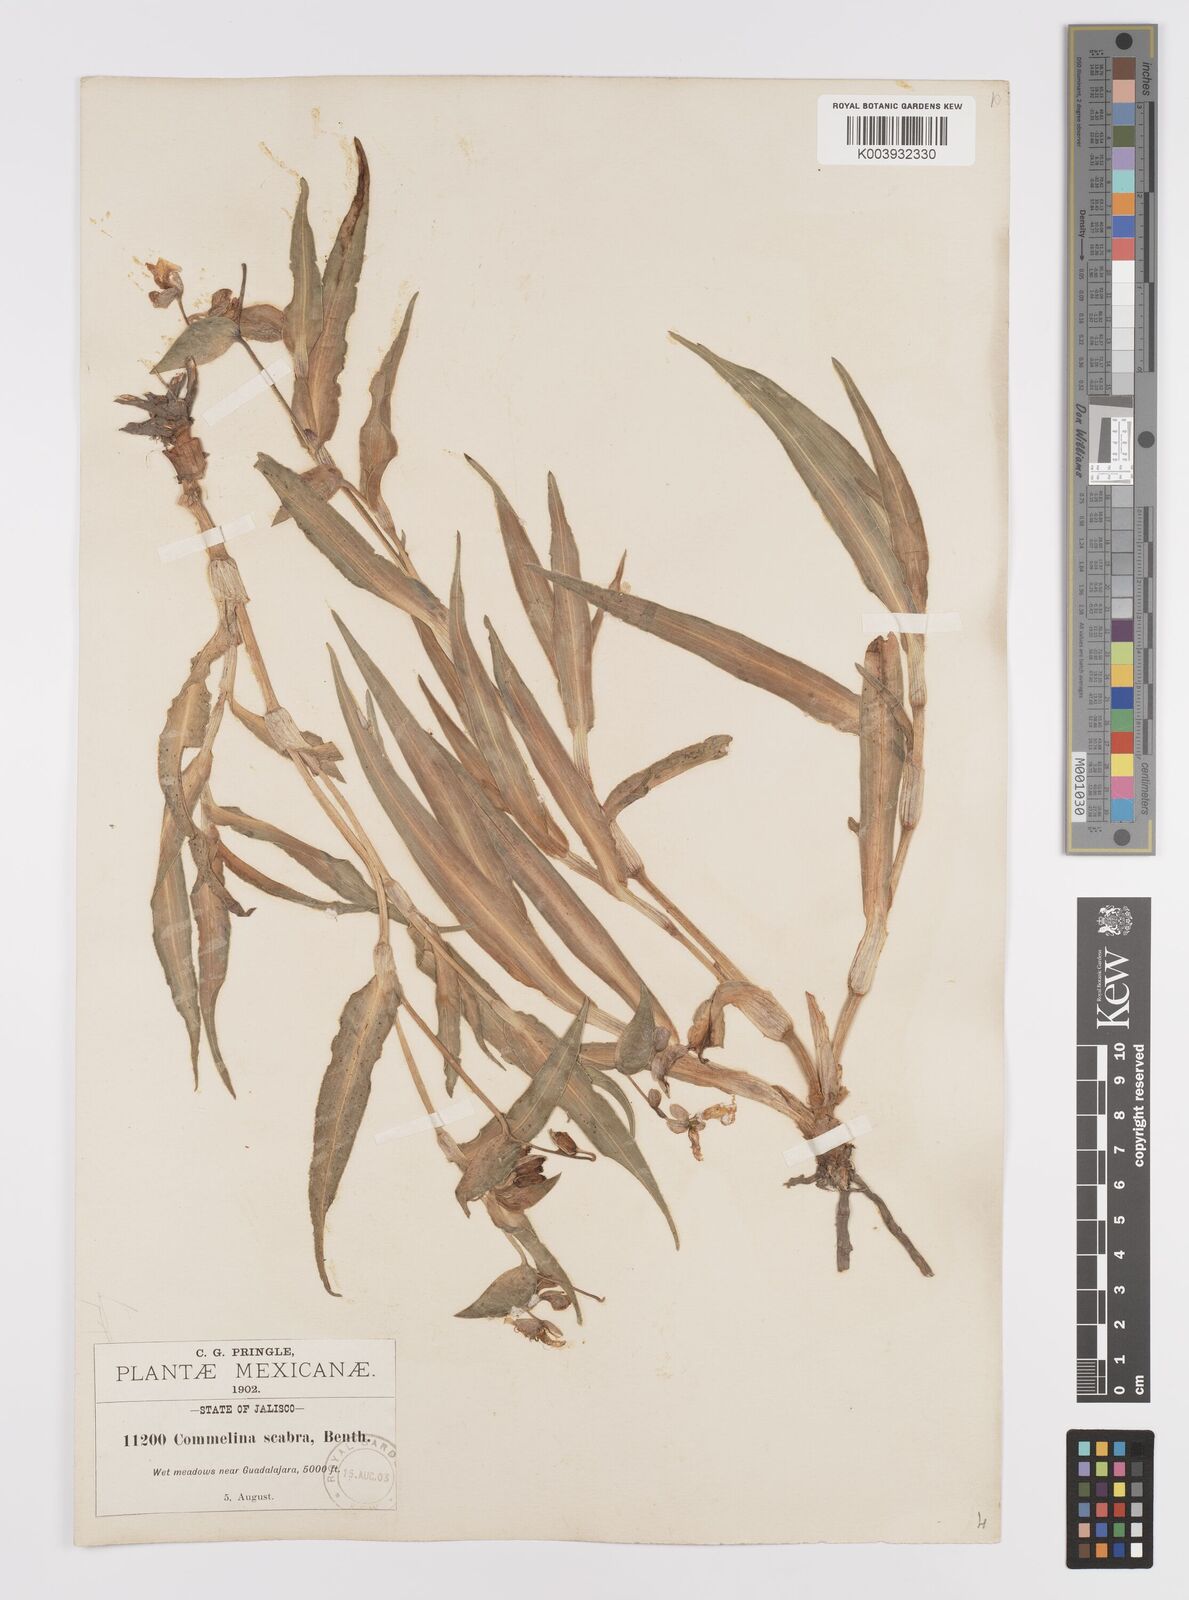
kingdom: Plantae
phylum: Tracheophyta
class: Liliopsida
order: Commelinales
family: Commelinaceae
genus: Commelina
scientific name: Commelina scabra
